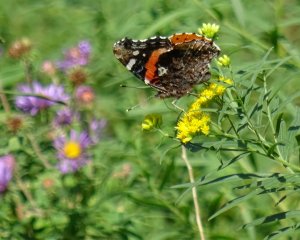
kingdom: Animalia
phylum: Arthropoda
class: Insecta
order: Lepidoptera
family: Nymphalidae
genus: Vanessa
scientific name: Vanessa atalanta
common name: Red Admiral
